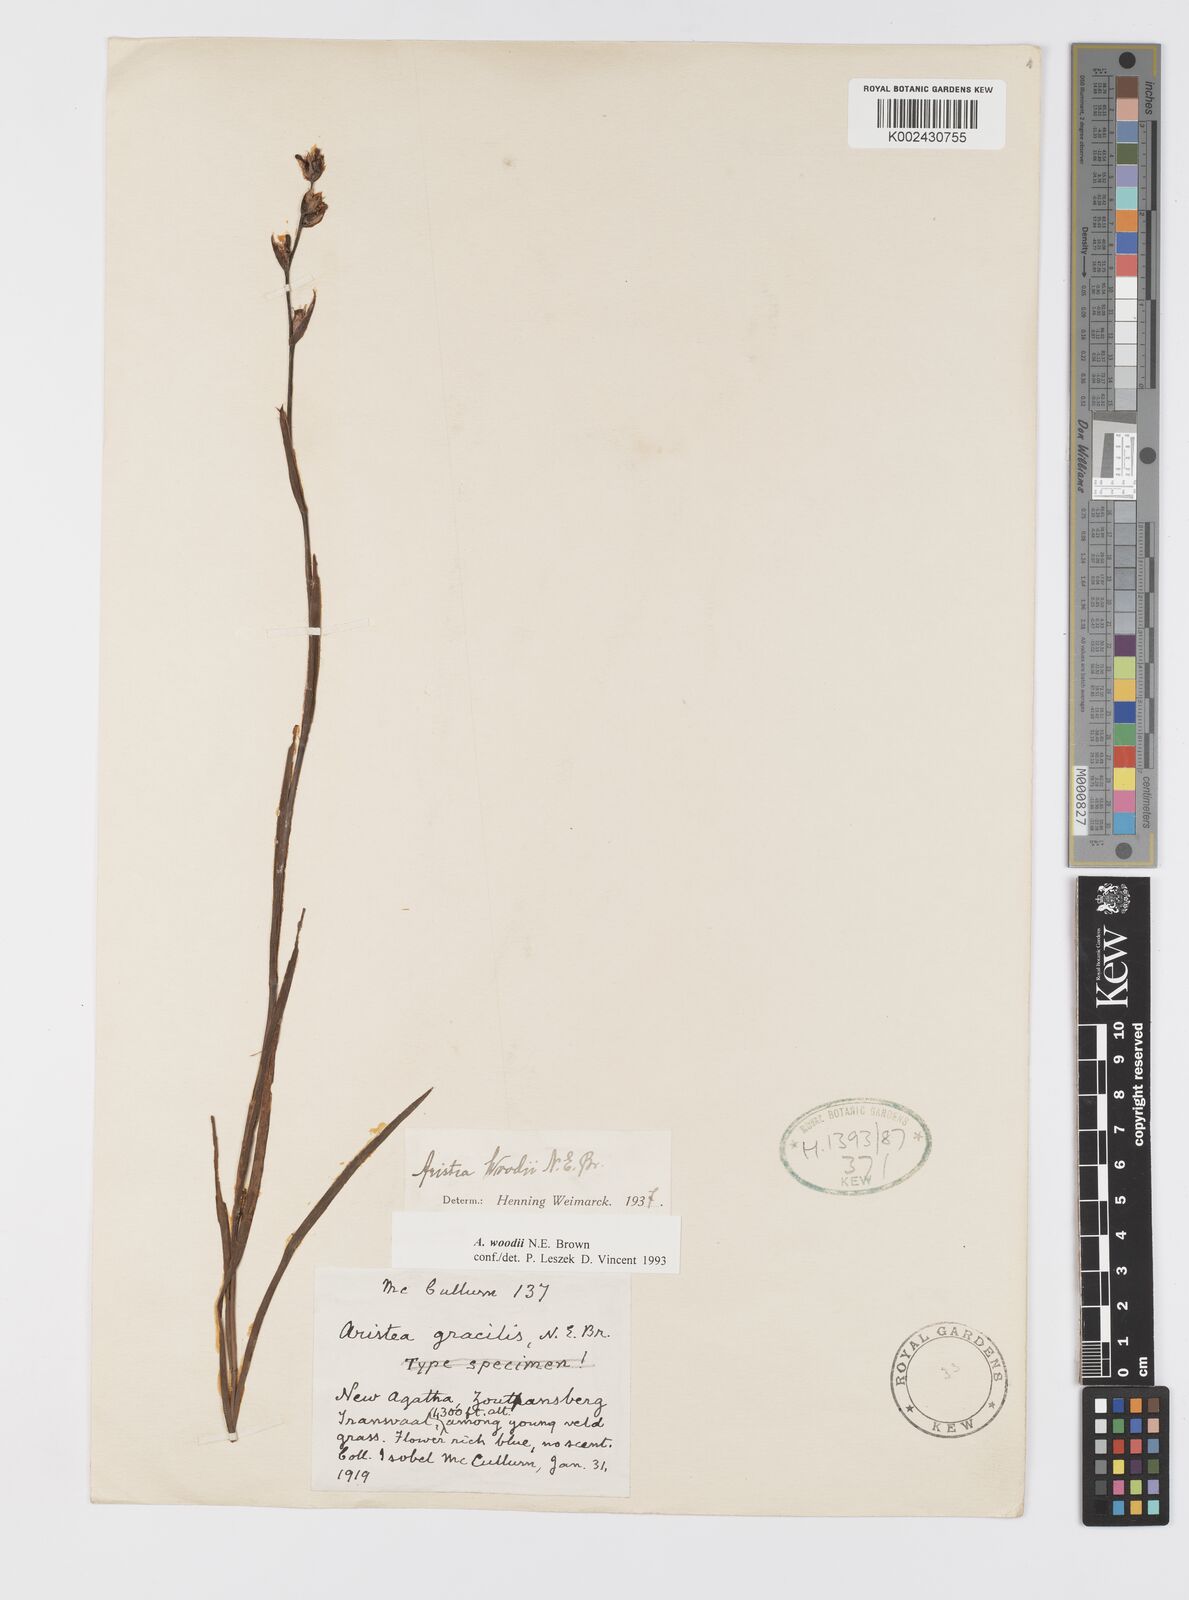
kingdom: Plantae
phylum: Tracheophyta
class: Liliopsida
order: Asparagales
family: Iridaceae
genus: Aristea
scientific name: Aristea torulosa
